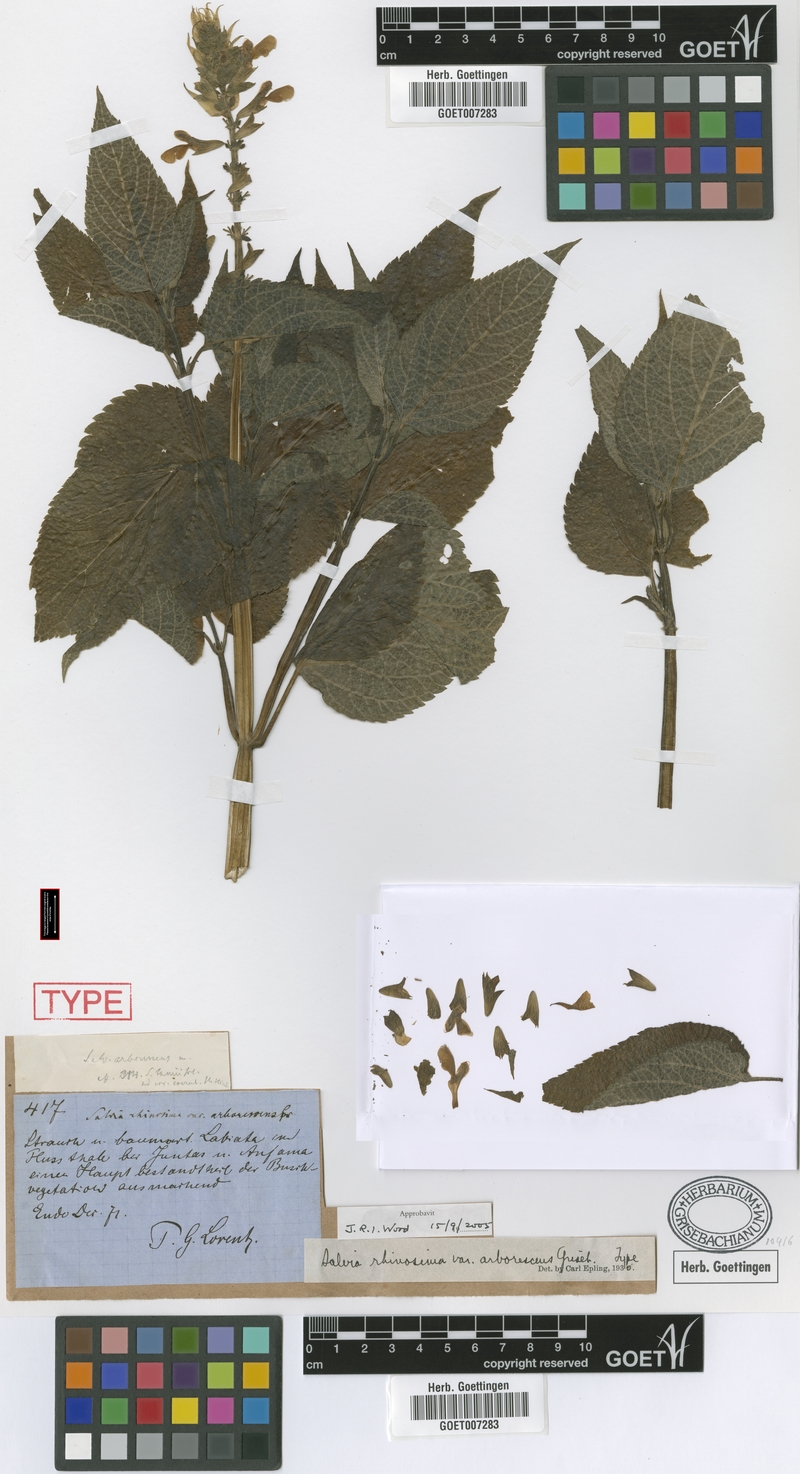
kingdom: Plantae
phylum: Tracheophyta
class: Magnoliopsida
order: Lamiales
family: Lamiaceae
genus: Salvia
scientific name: Salvia stachydifolia
